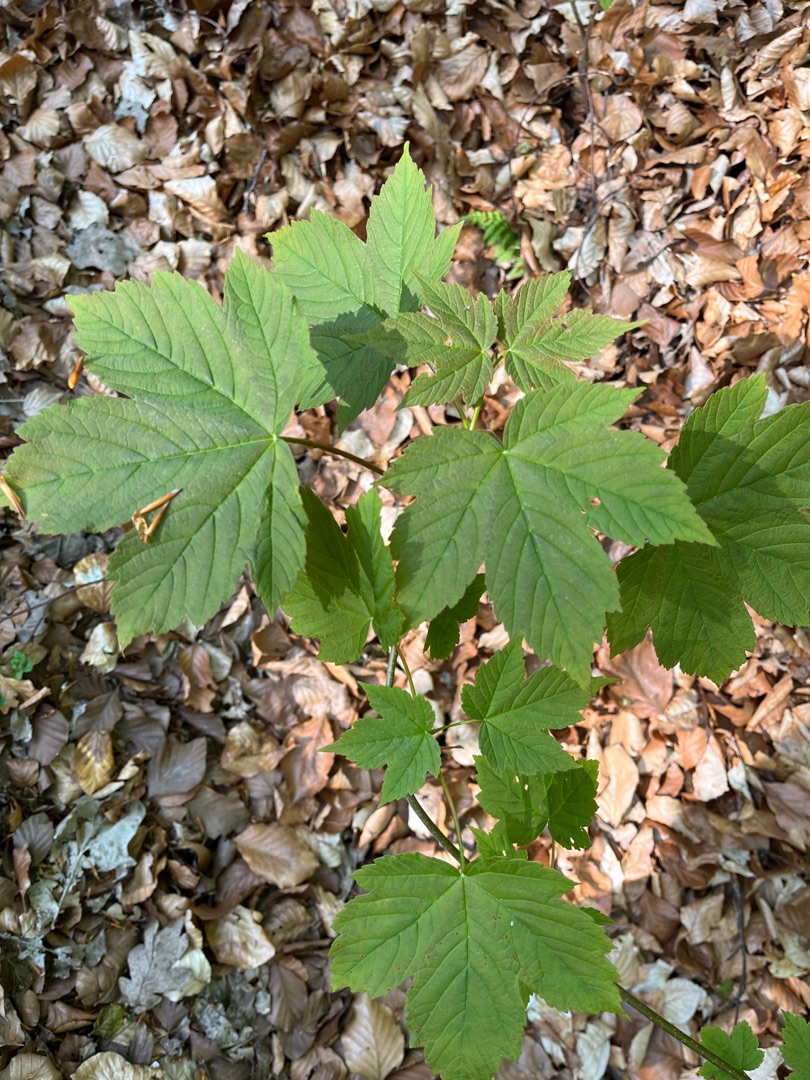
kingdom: Plantae
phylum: Tracheophyta
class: Magnoliopsida
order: Sapindales
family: Sapindaceae
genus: Acer
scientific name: Acer pseudoplatanus
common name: Ahorn
